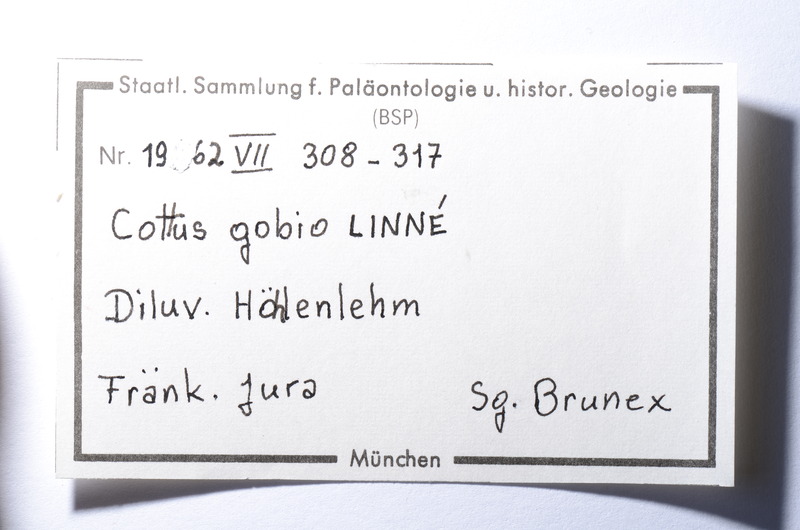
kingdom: Animalia
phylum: Chordata
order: Scorpaeniformes
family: Cottidae
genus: Cottus
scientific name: Cottus gobio
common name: Bullhead
